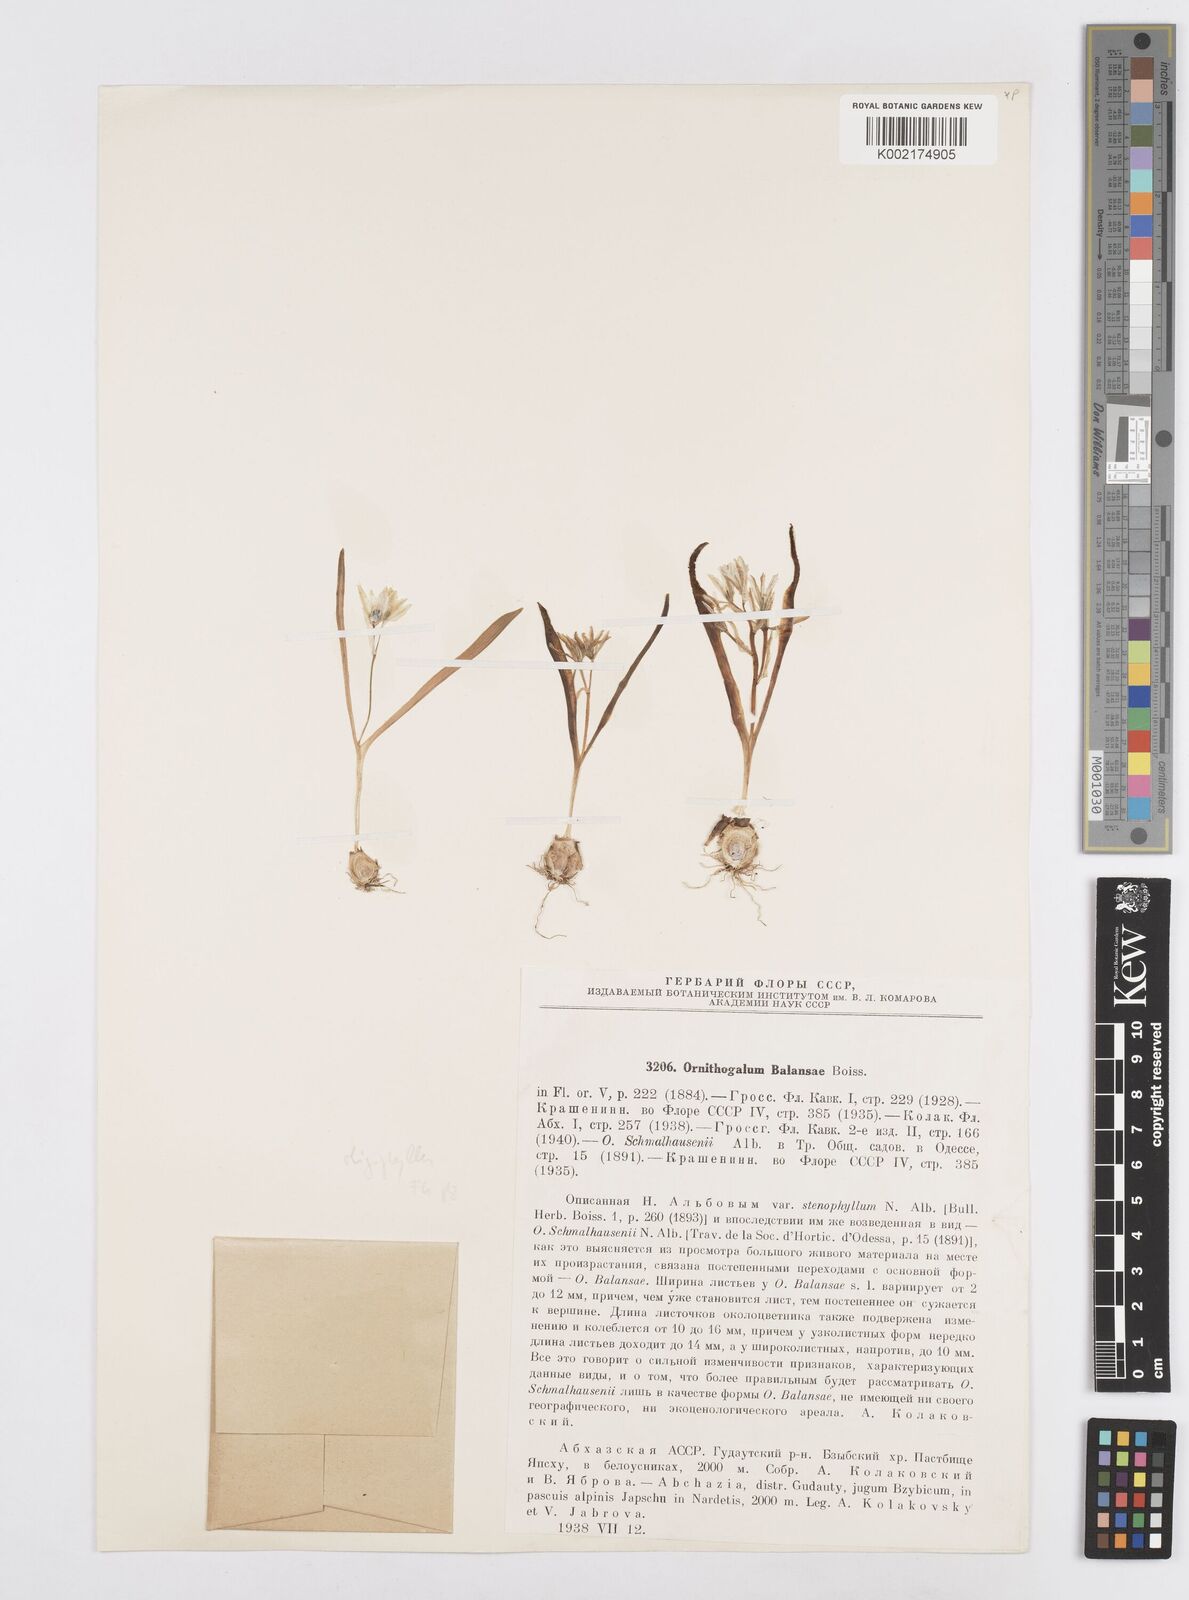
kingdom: Plantae
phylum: Tracheophyta
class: Liliopsida
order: Asparagales
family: Asparagaceae
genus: Ornithogalum
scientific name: Ornithogalum balansae
